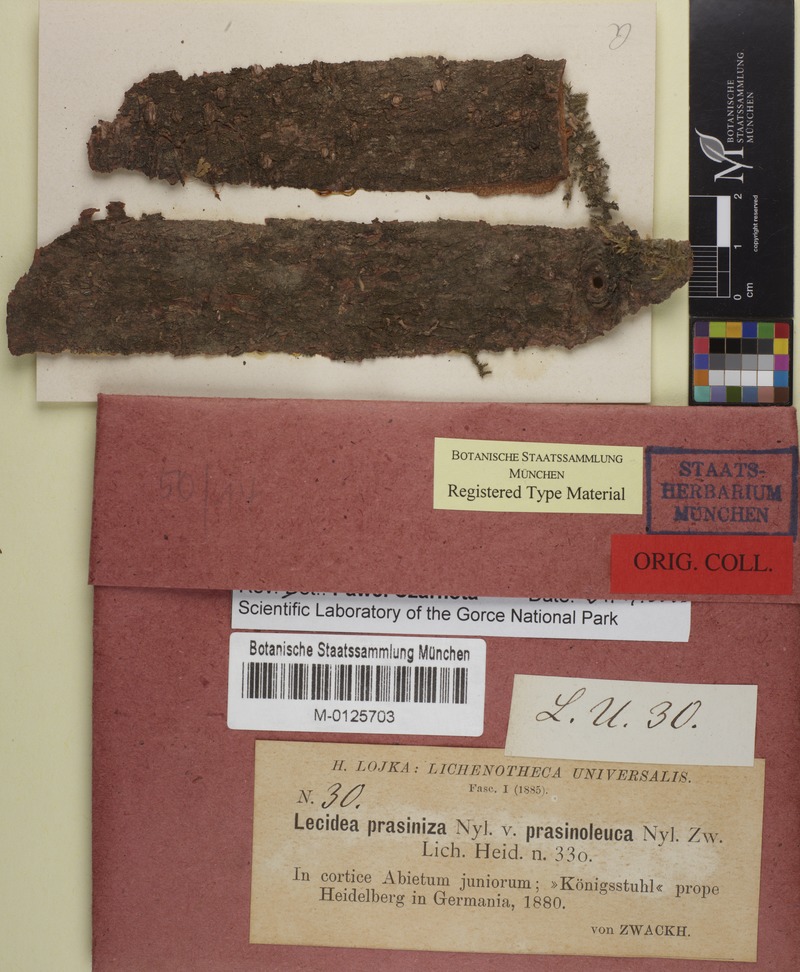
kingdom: Fungi
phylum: Ascomycota
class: Lecanoromycetes
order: Lecanorales
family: Byssolomataceae
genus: Micarea
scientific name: Micarea micrococca
